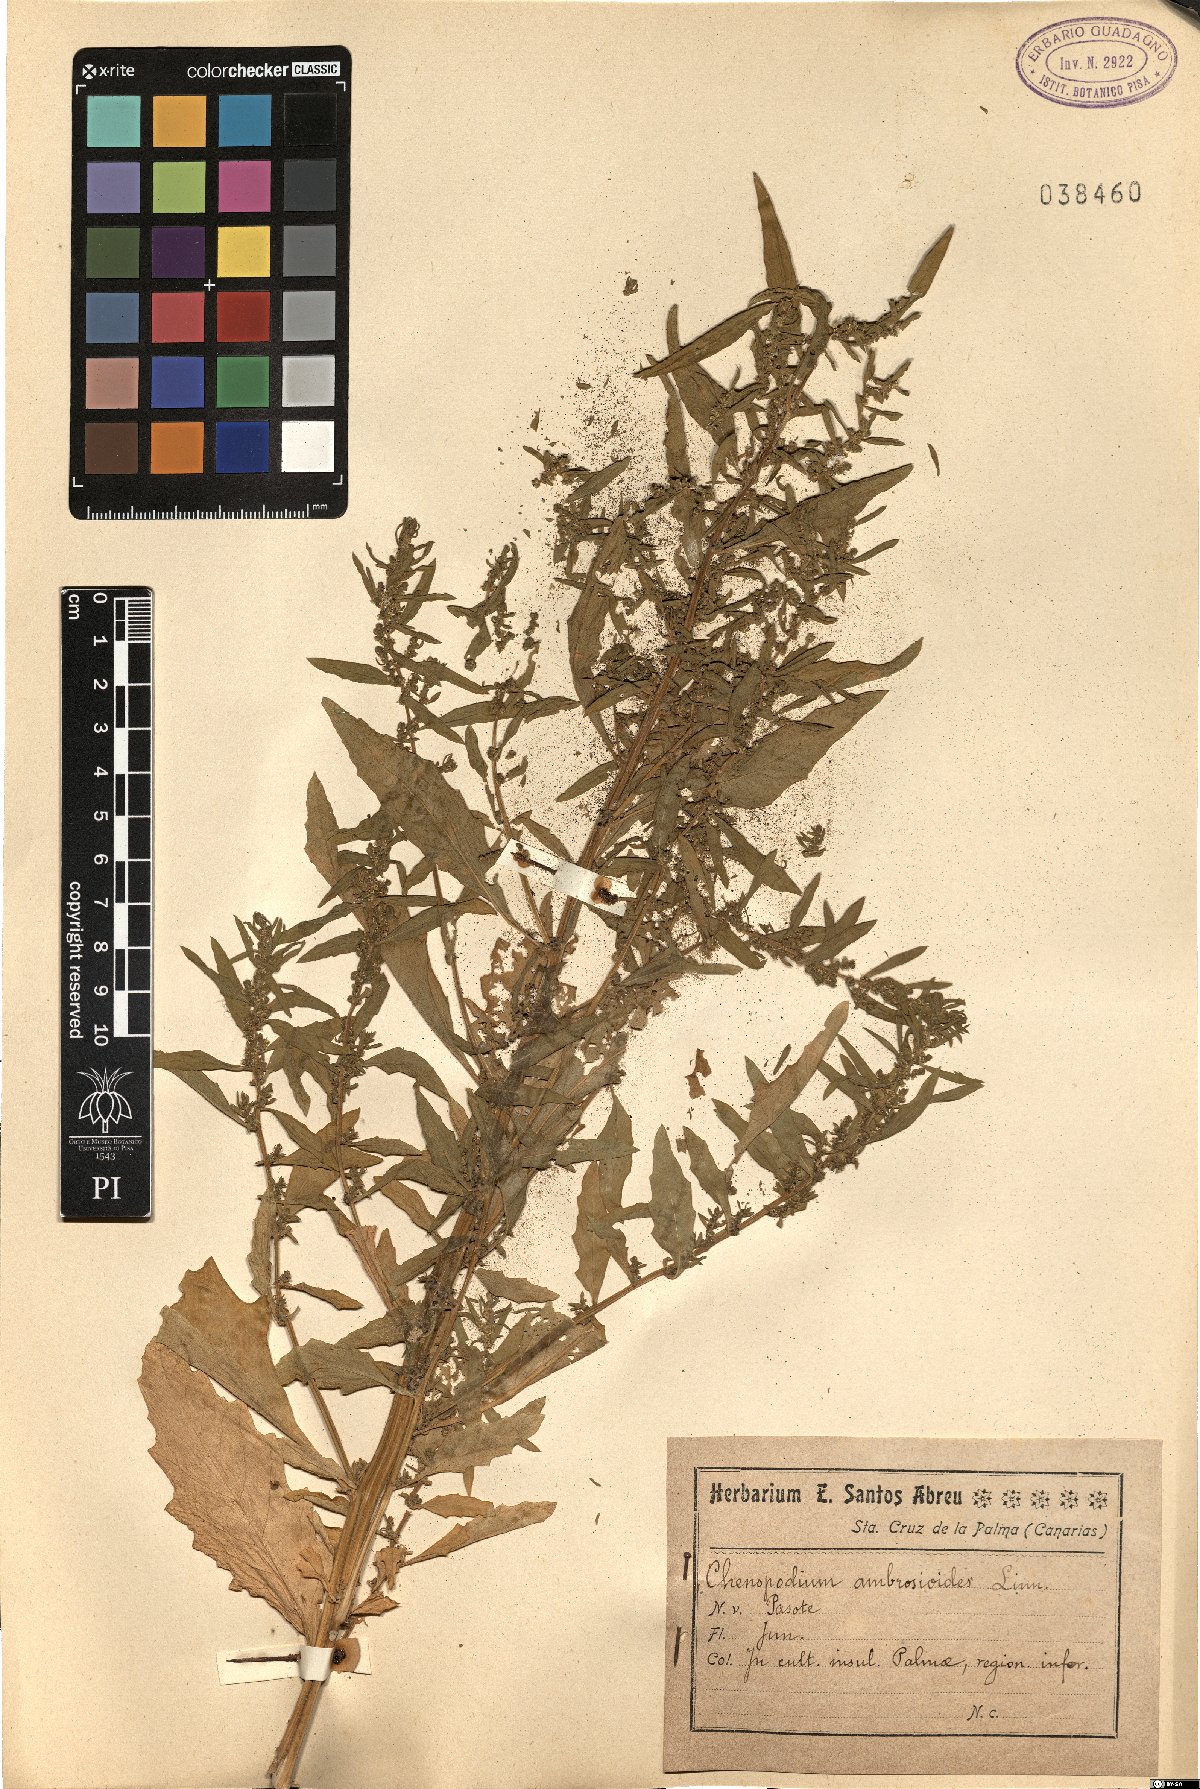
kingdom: Plantae
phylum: Tracheophyta
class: Magnoliopsida
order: Caryophyllales
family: Amaranthaceae
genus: Chenopodium
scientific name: Chenopodium
